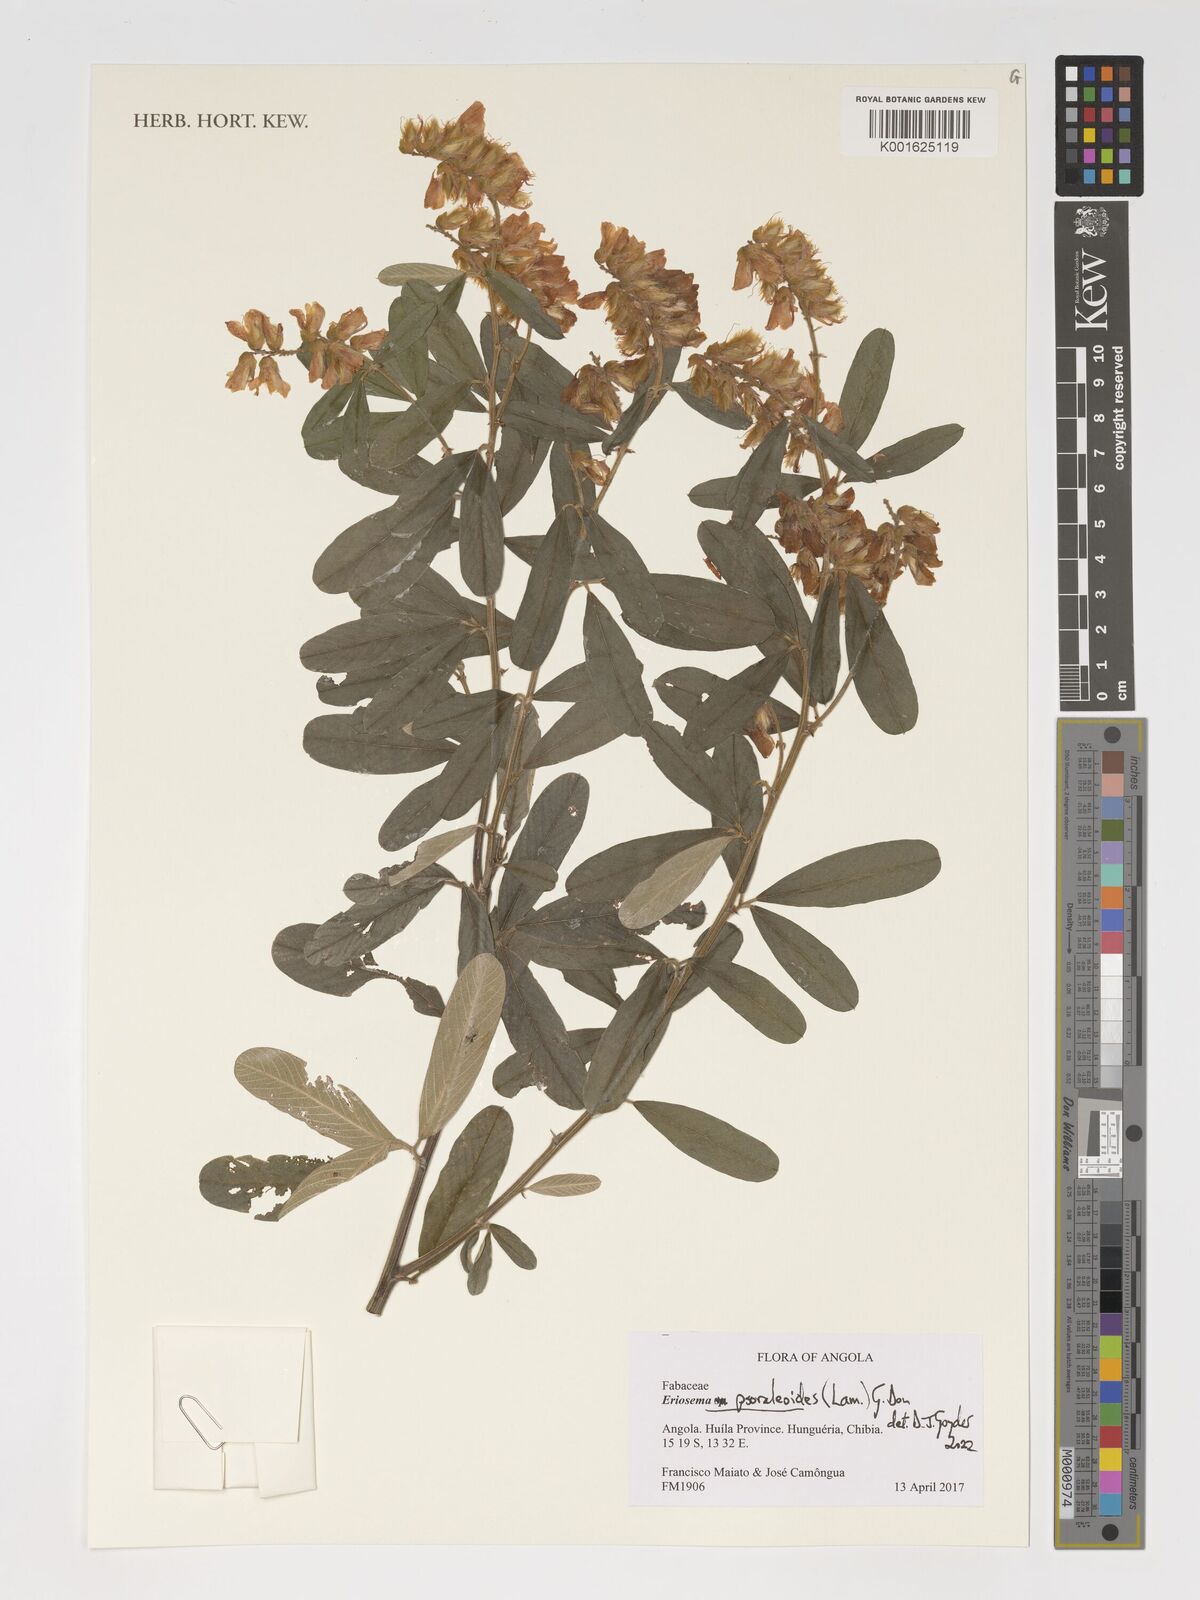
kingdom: Plantae
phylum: Tracheophyta
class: Magnoliopsida
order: Fabales
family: Fabaceae
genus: Eriosema
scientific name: Eriosema psoraleoides
